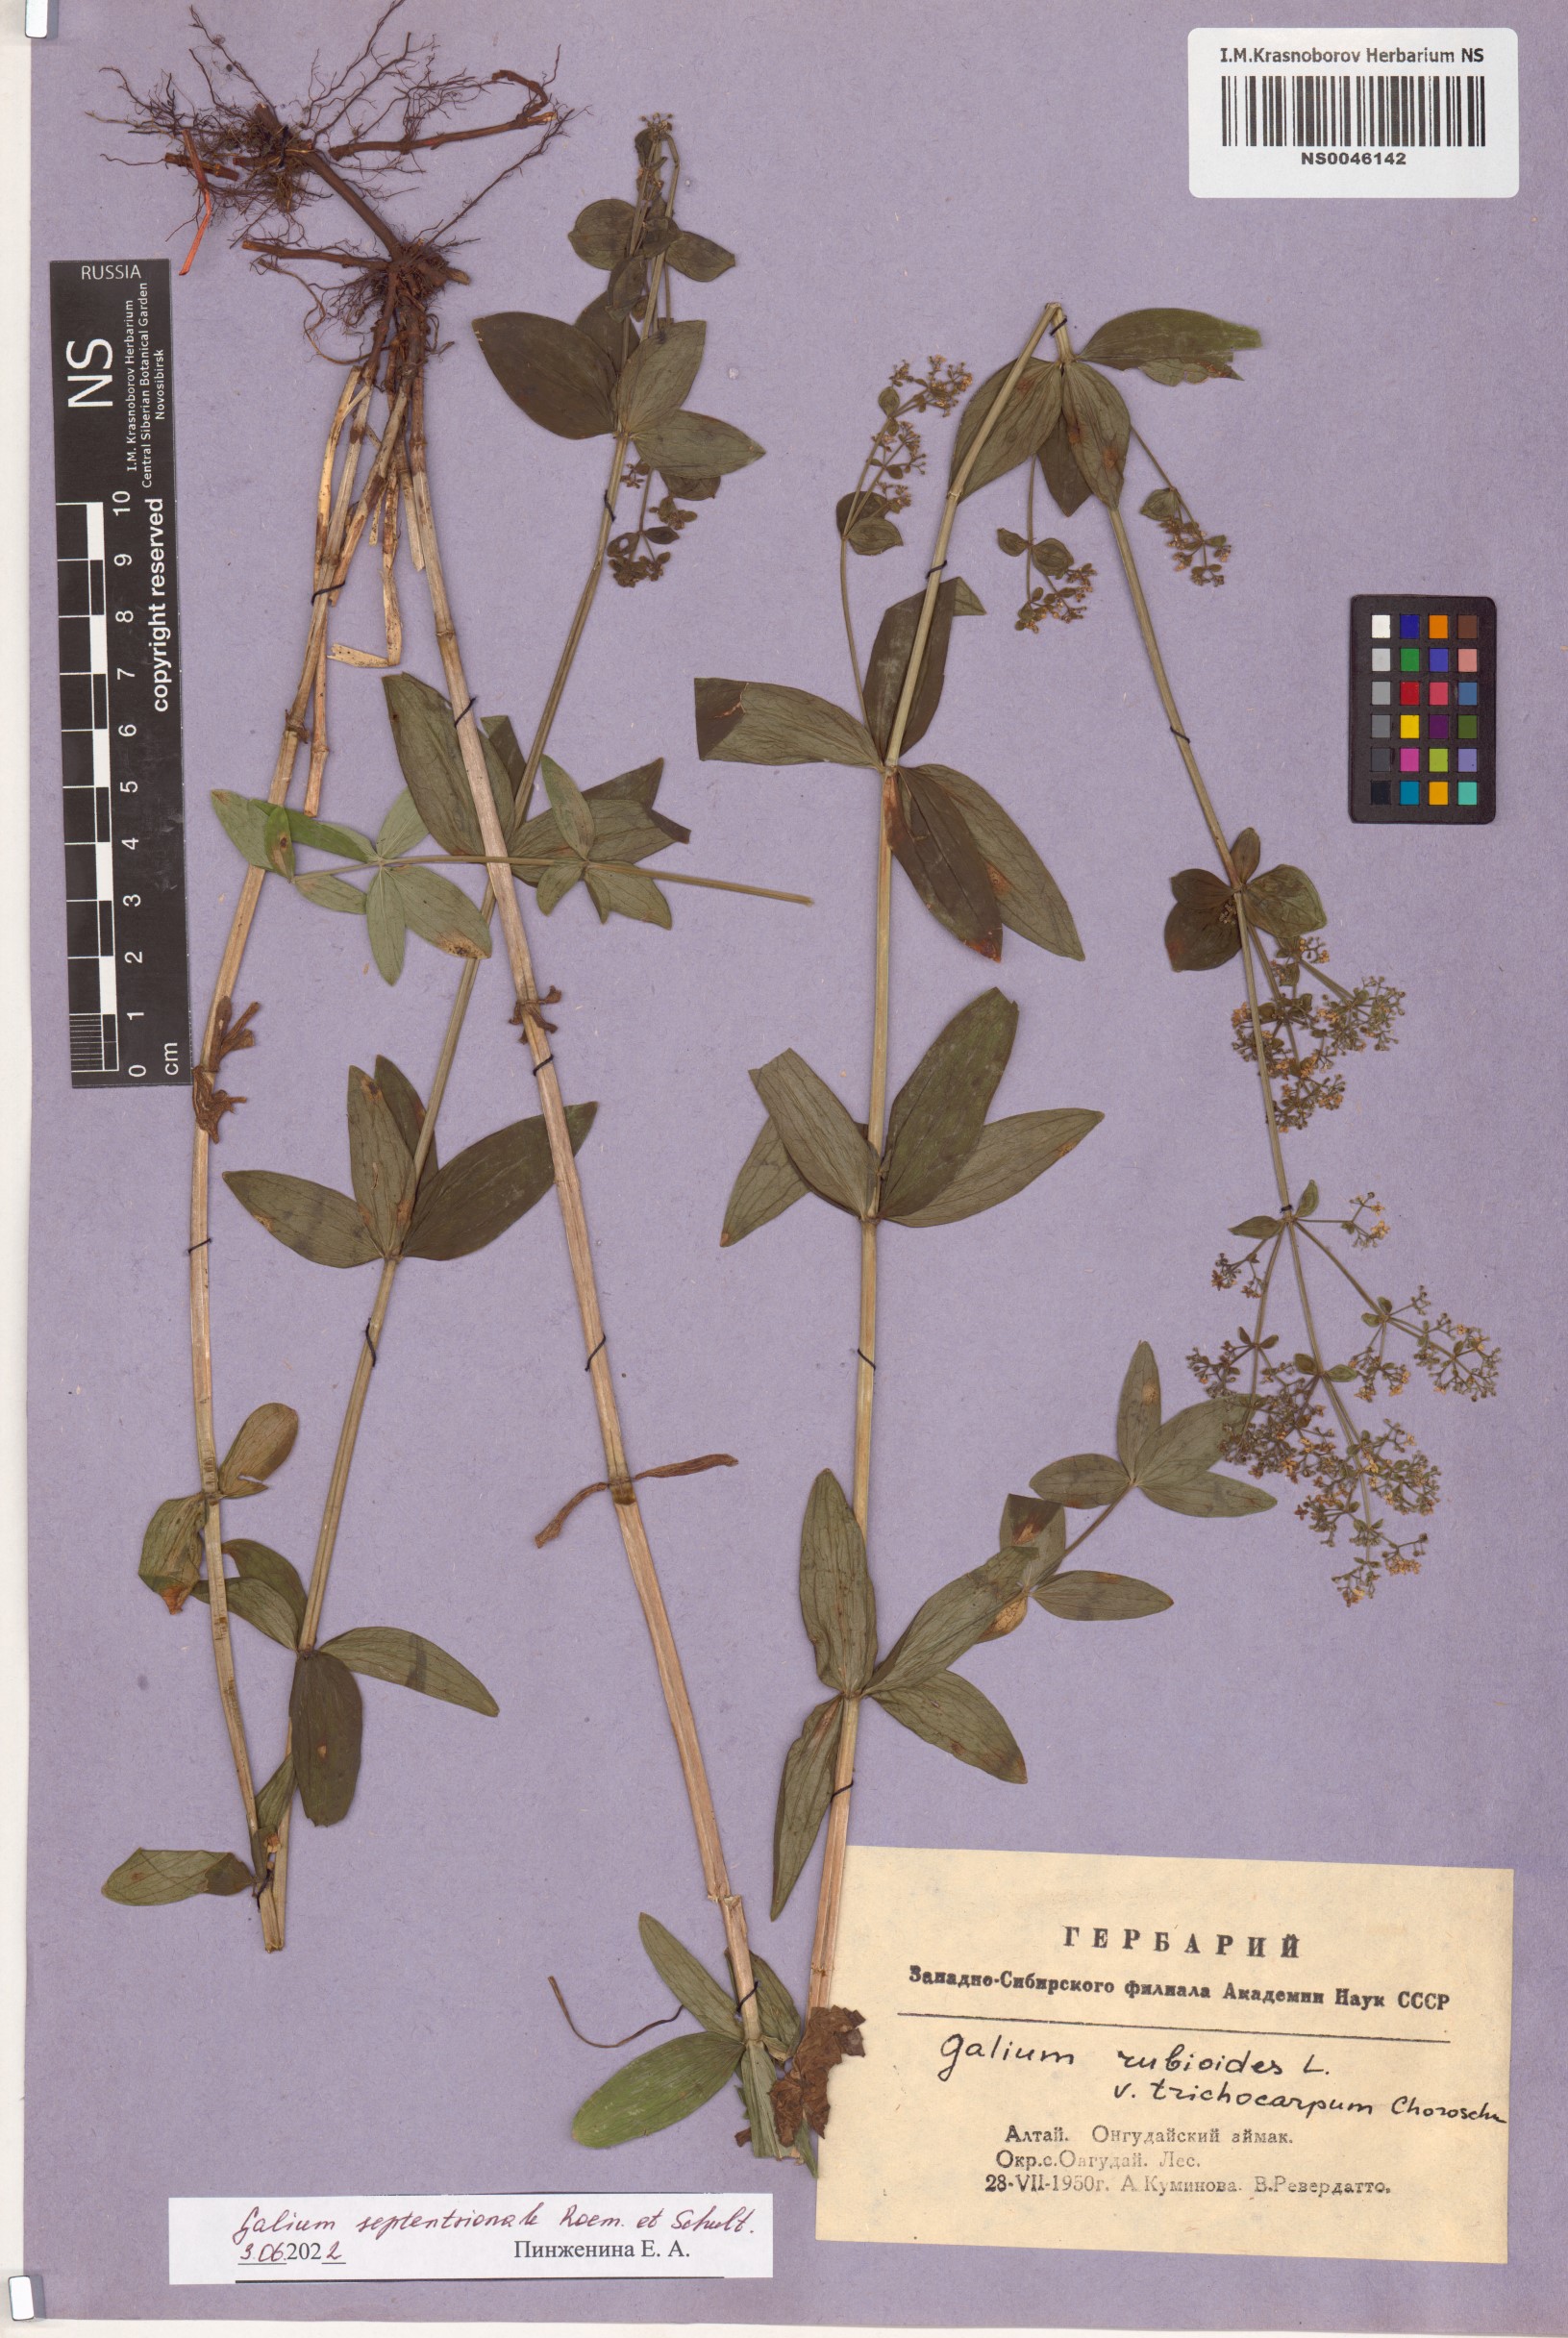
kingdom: Plantae
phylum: Tracheophyta
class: Magnoliopsida
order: Gentianales
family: Rubiaceae
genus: Galium
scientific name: Galium boreale
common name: Northern bedstraw
